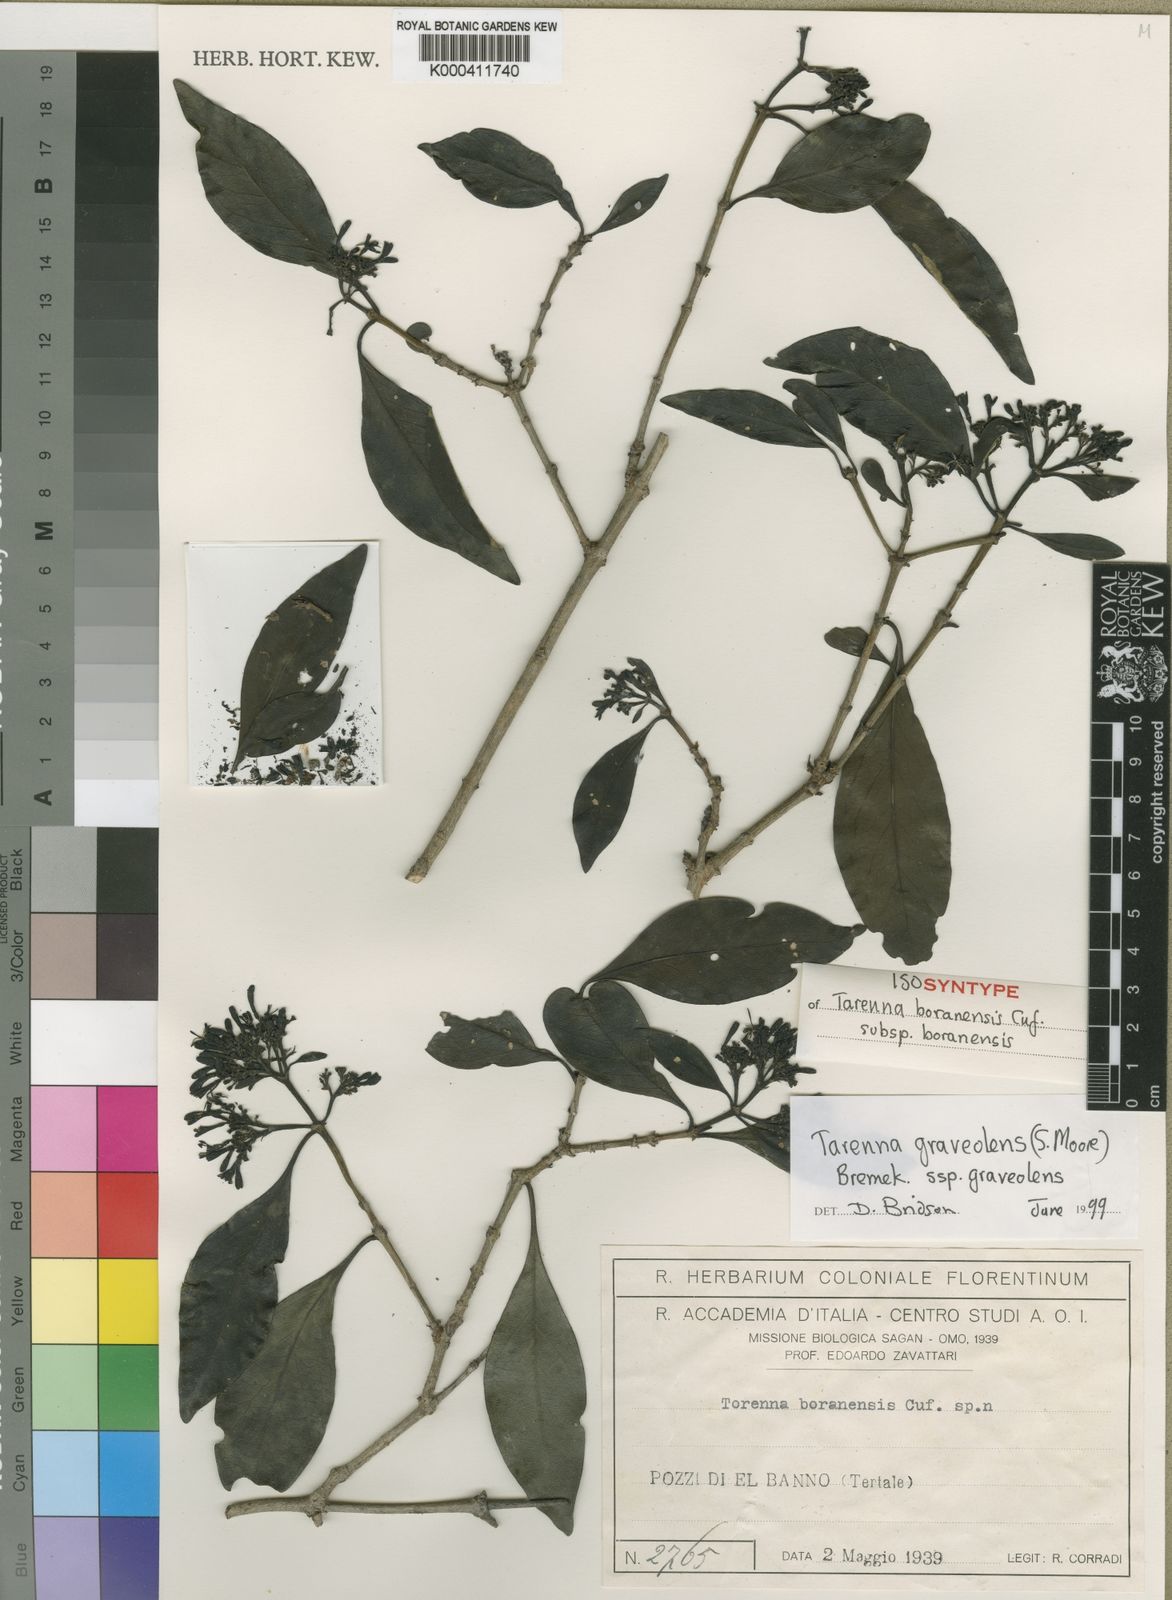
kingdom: Plantae
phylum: Tracheophyta
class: Magnoliopsida
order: Gentianales
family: Rubiaceae
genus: Coptosperma
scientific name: Coptosperma graveolens
